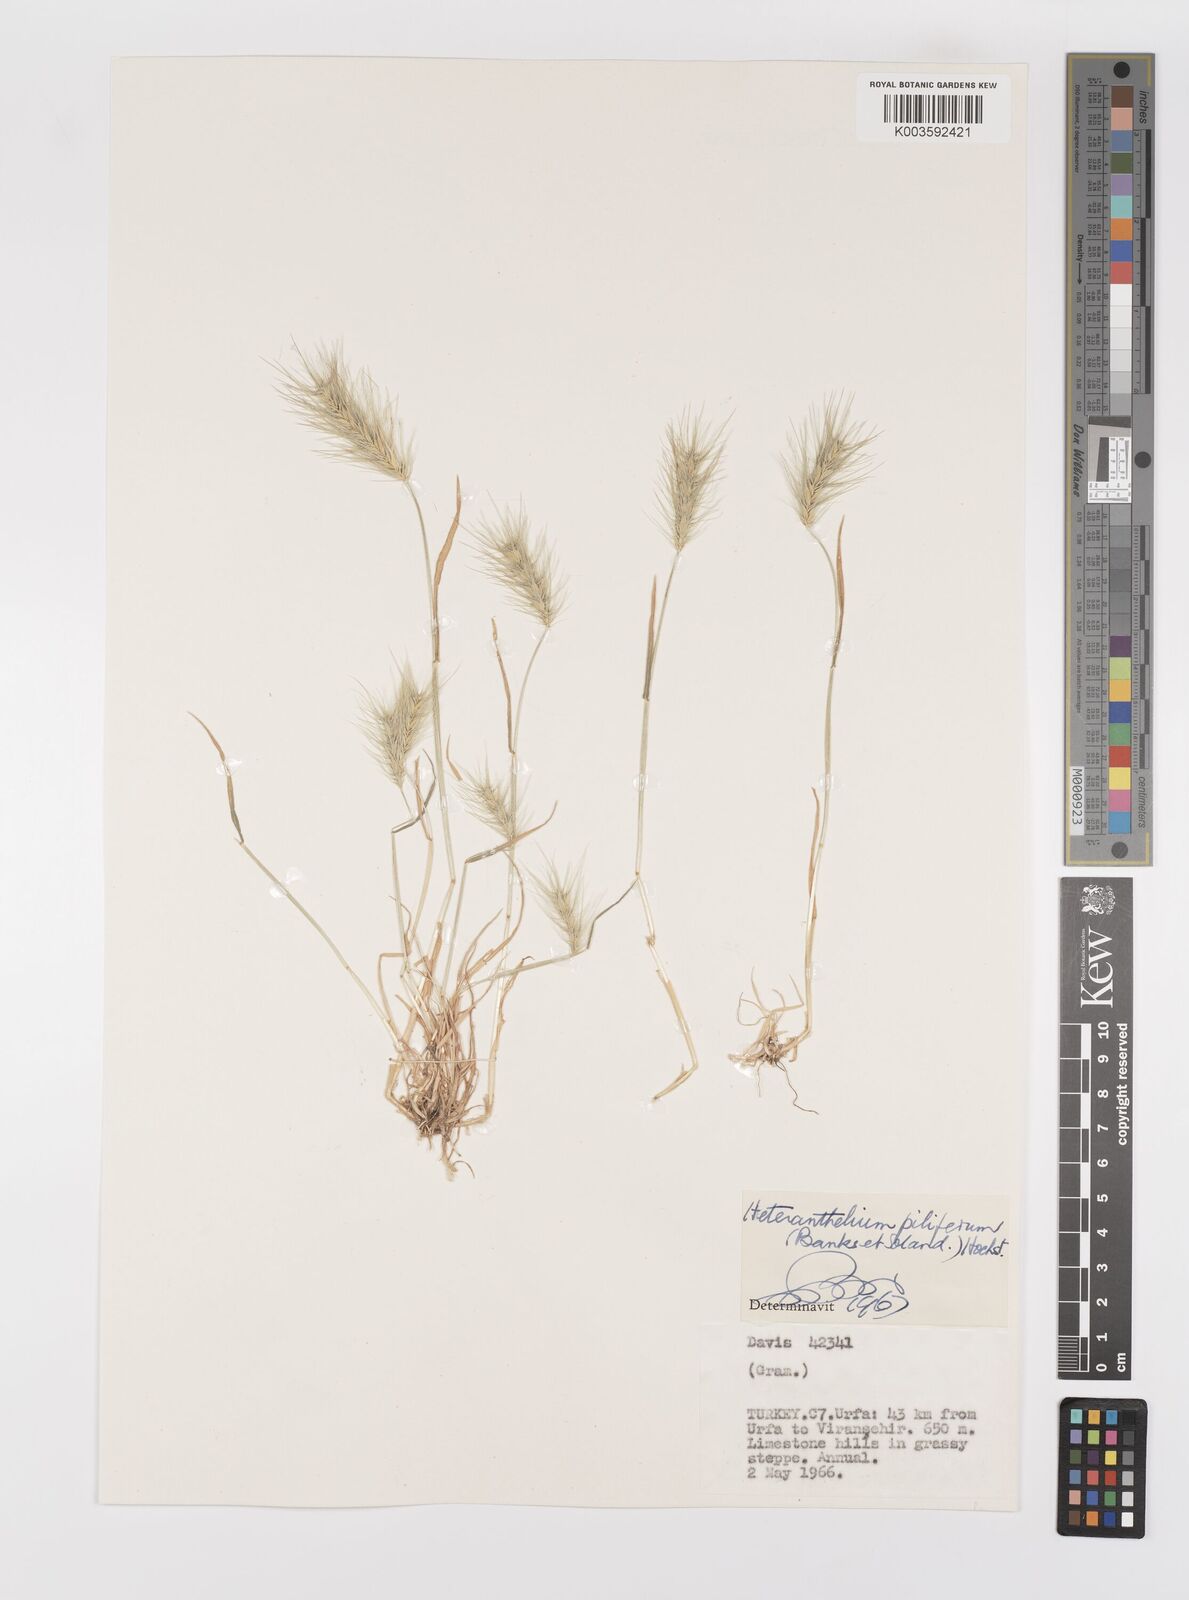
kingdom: Plantae
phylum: Tracheophyta
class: Liliopsida
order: Poales
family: Poaceae
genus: Heteranthelium
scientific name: Heteranthelium piliferum
